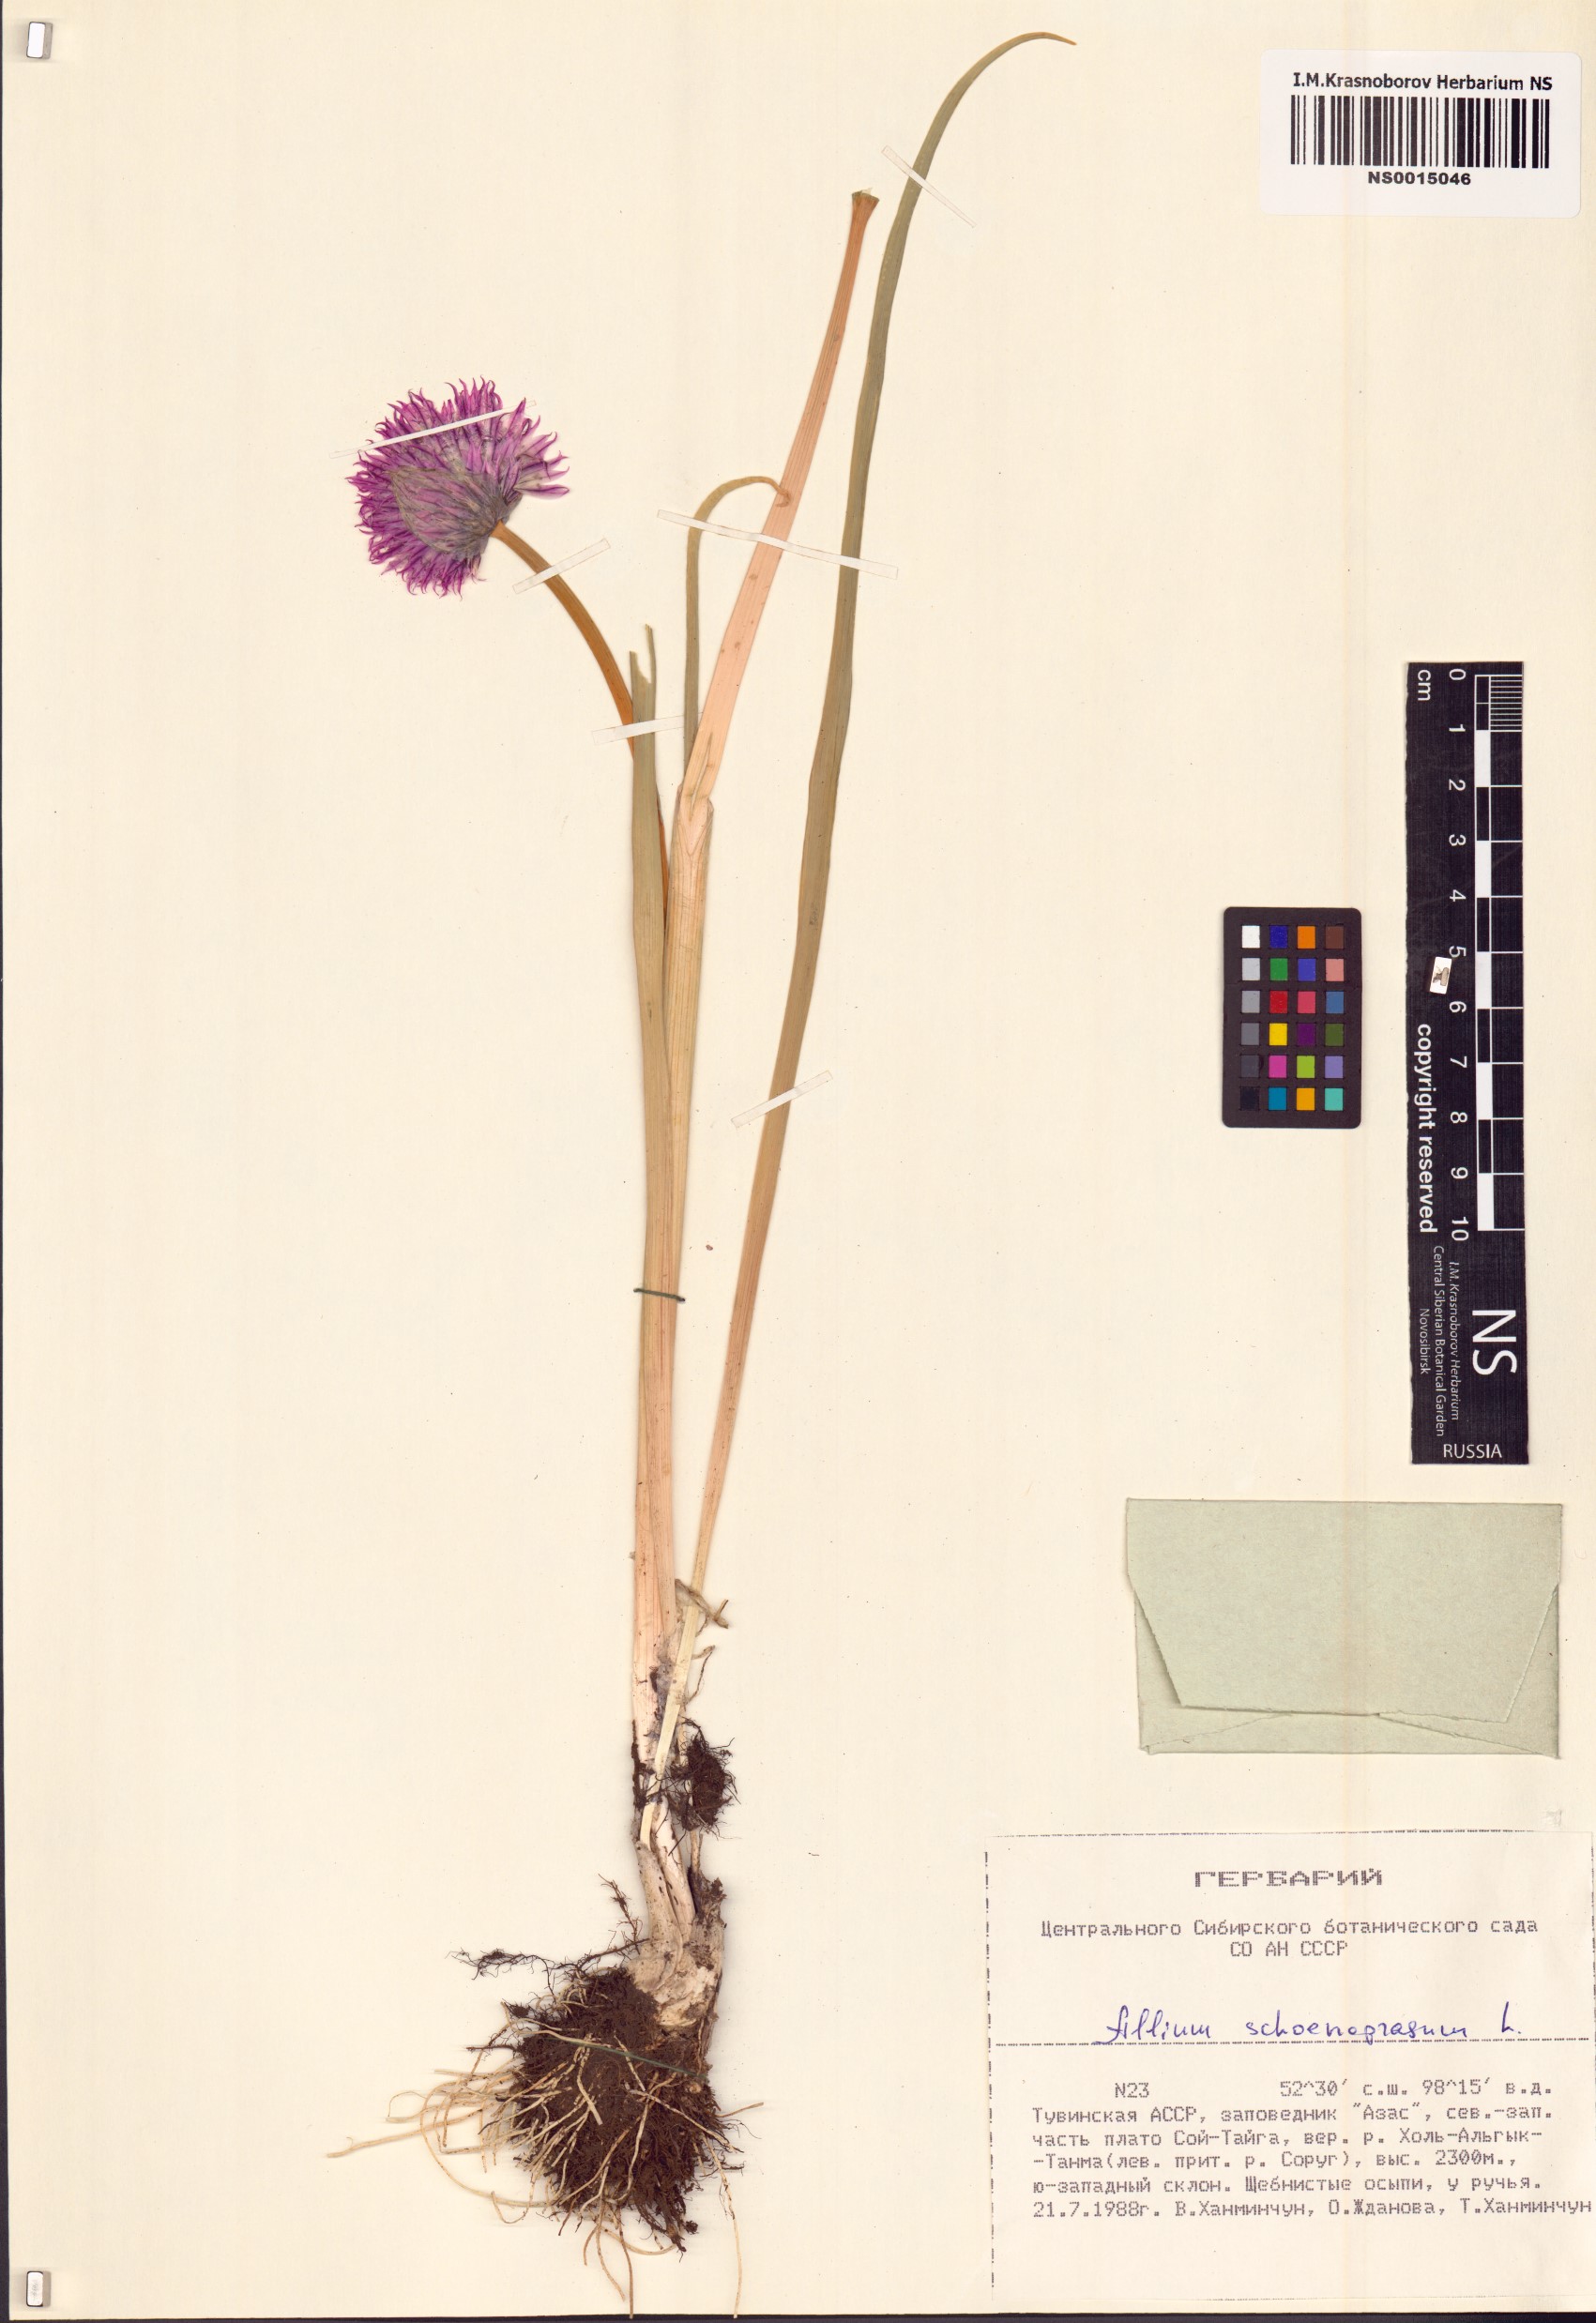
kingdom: Plantae
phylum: Tracheophyta
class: Liliopsida
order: Asparagales
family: Amaryllidaceae
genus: Allium
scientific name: Allium schoenoprasum
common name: Chives
